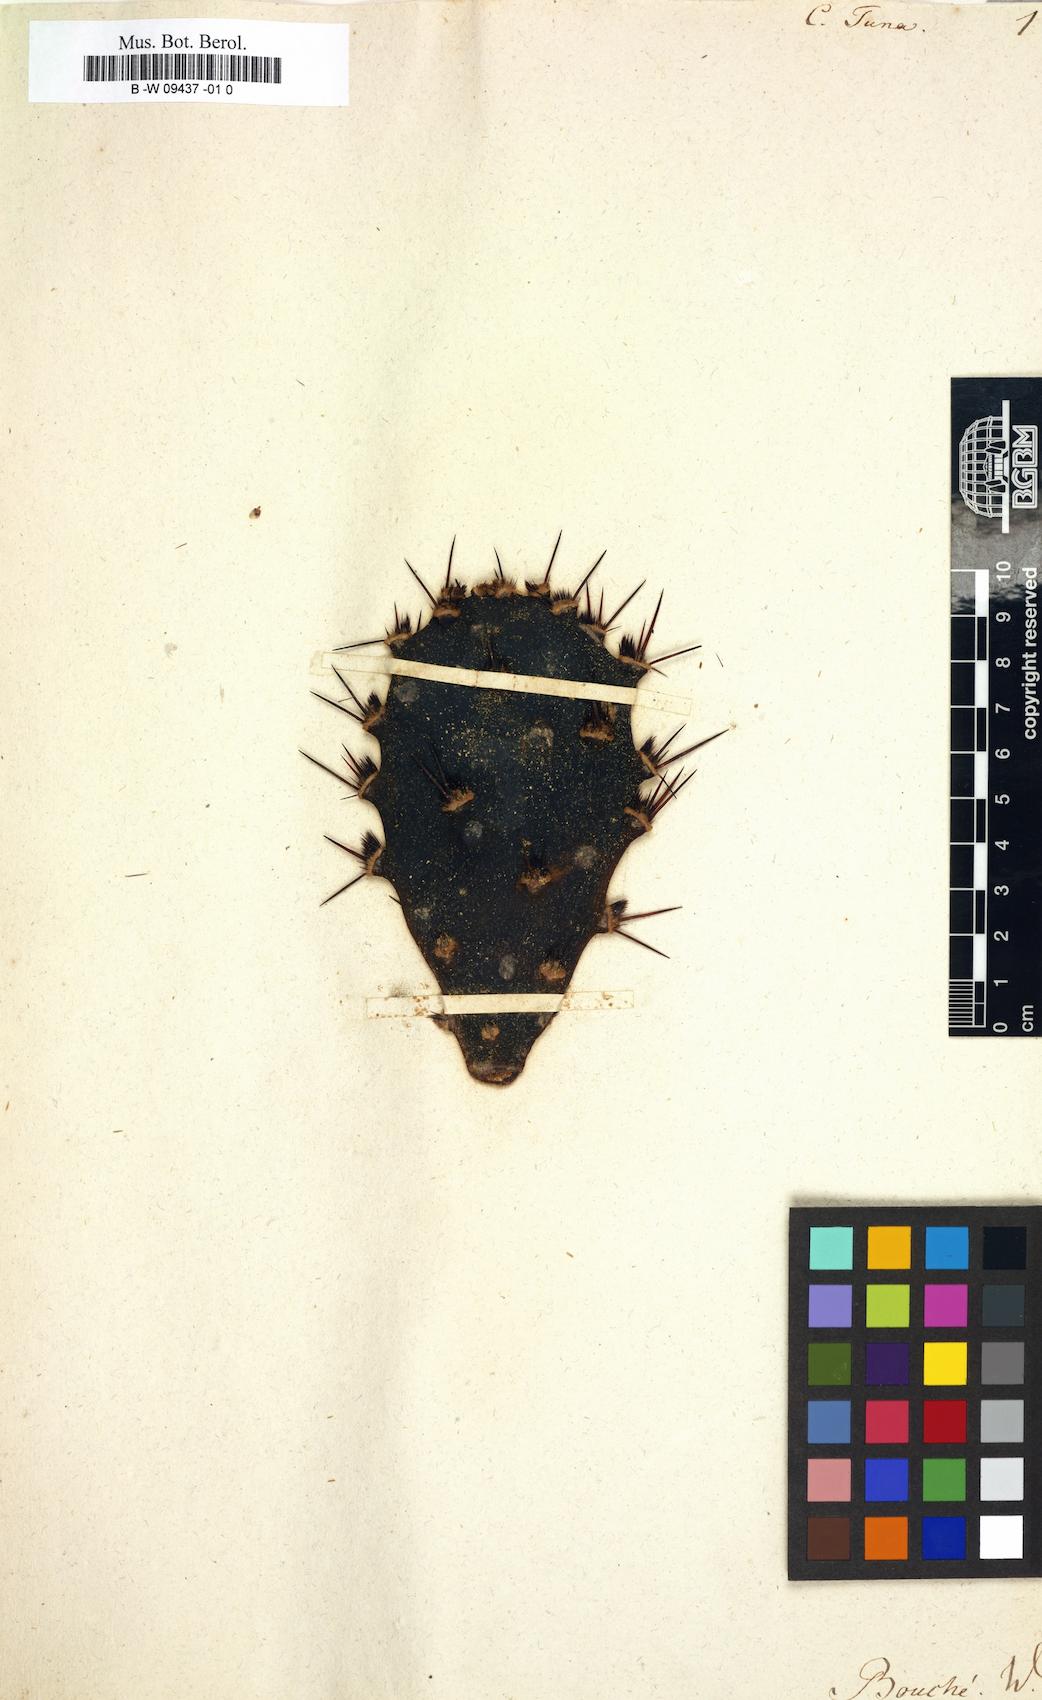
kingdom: Plantae
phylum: Tracheophyta
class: Magnoliopsida
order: Caryophyllales
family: Cactaceae
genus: Opuntia
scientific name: Opuntia tuna
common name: Tuna
